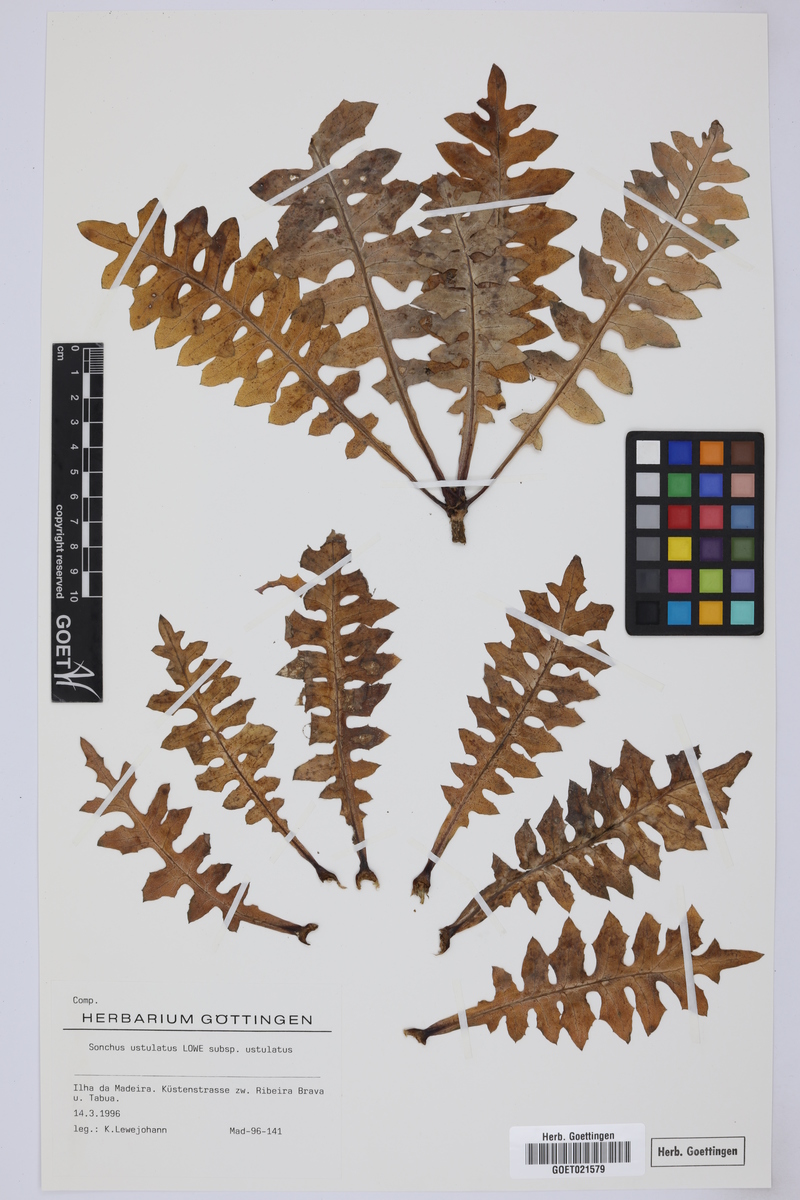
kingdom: Plantae
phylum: Tracheophyta
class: Magnoliopsida
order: Asterales
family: Asteraceae
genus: Sonchus
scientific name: Sonchus ustulatus
